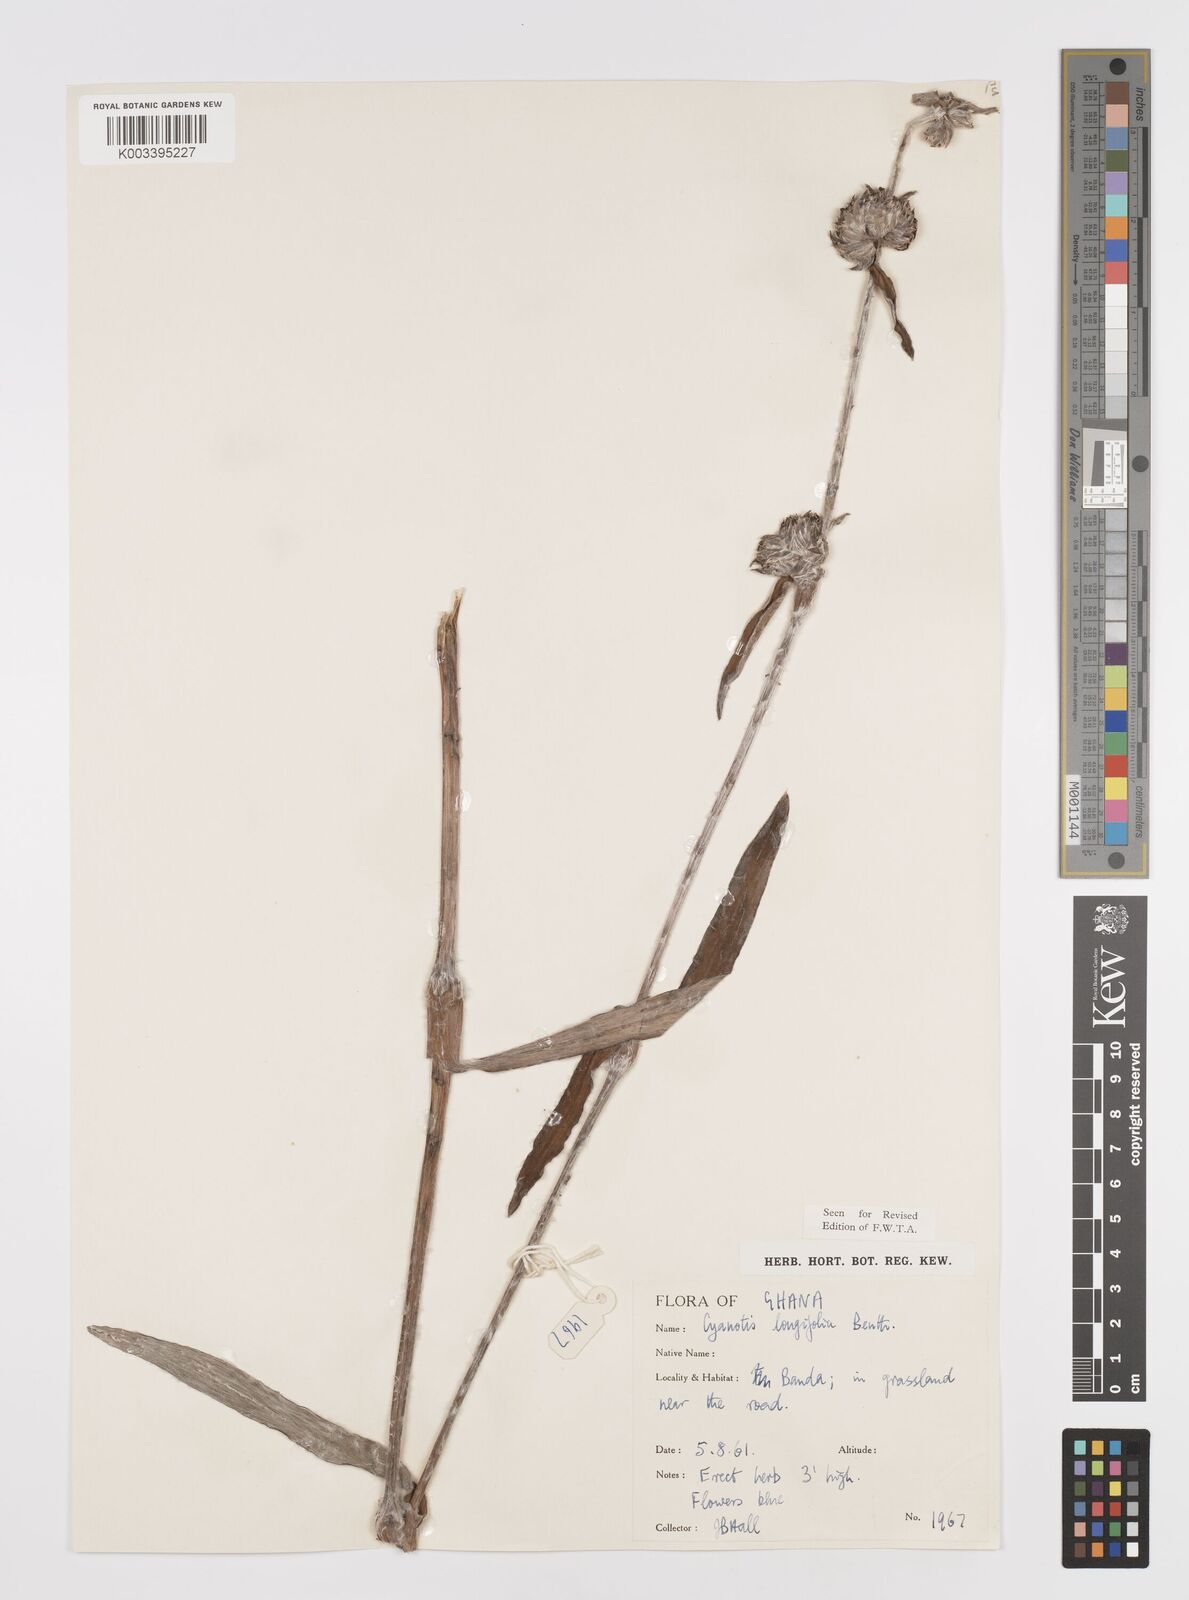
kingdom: Plantae
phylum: Tracheophyta
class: Liliopsida
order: Commelinales
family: Commelinaceae
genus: Cyanotis
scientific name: Cyanotis
